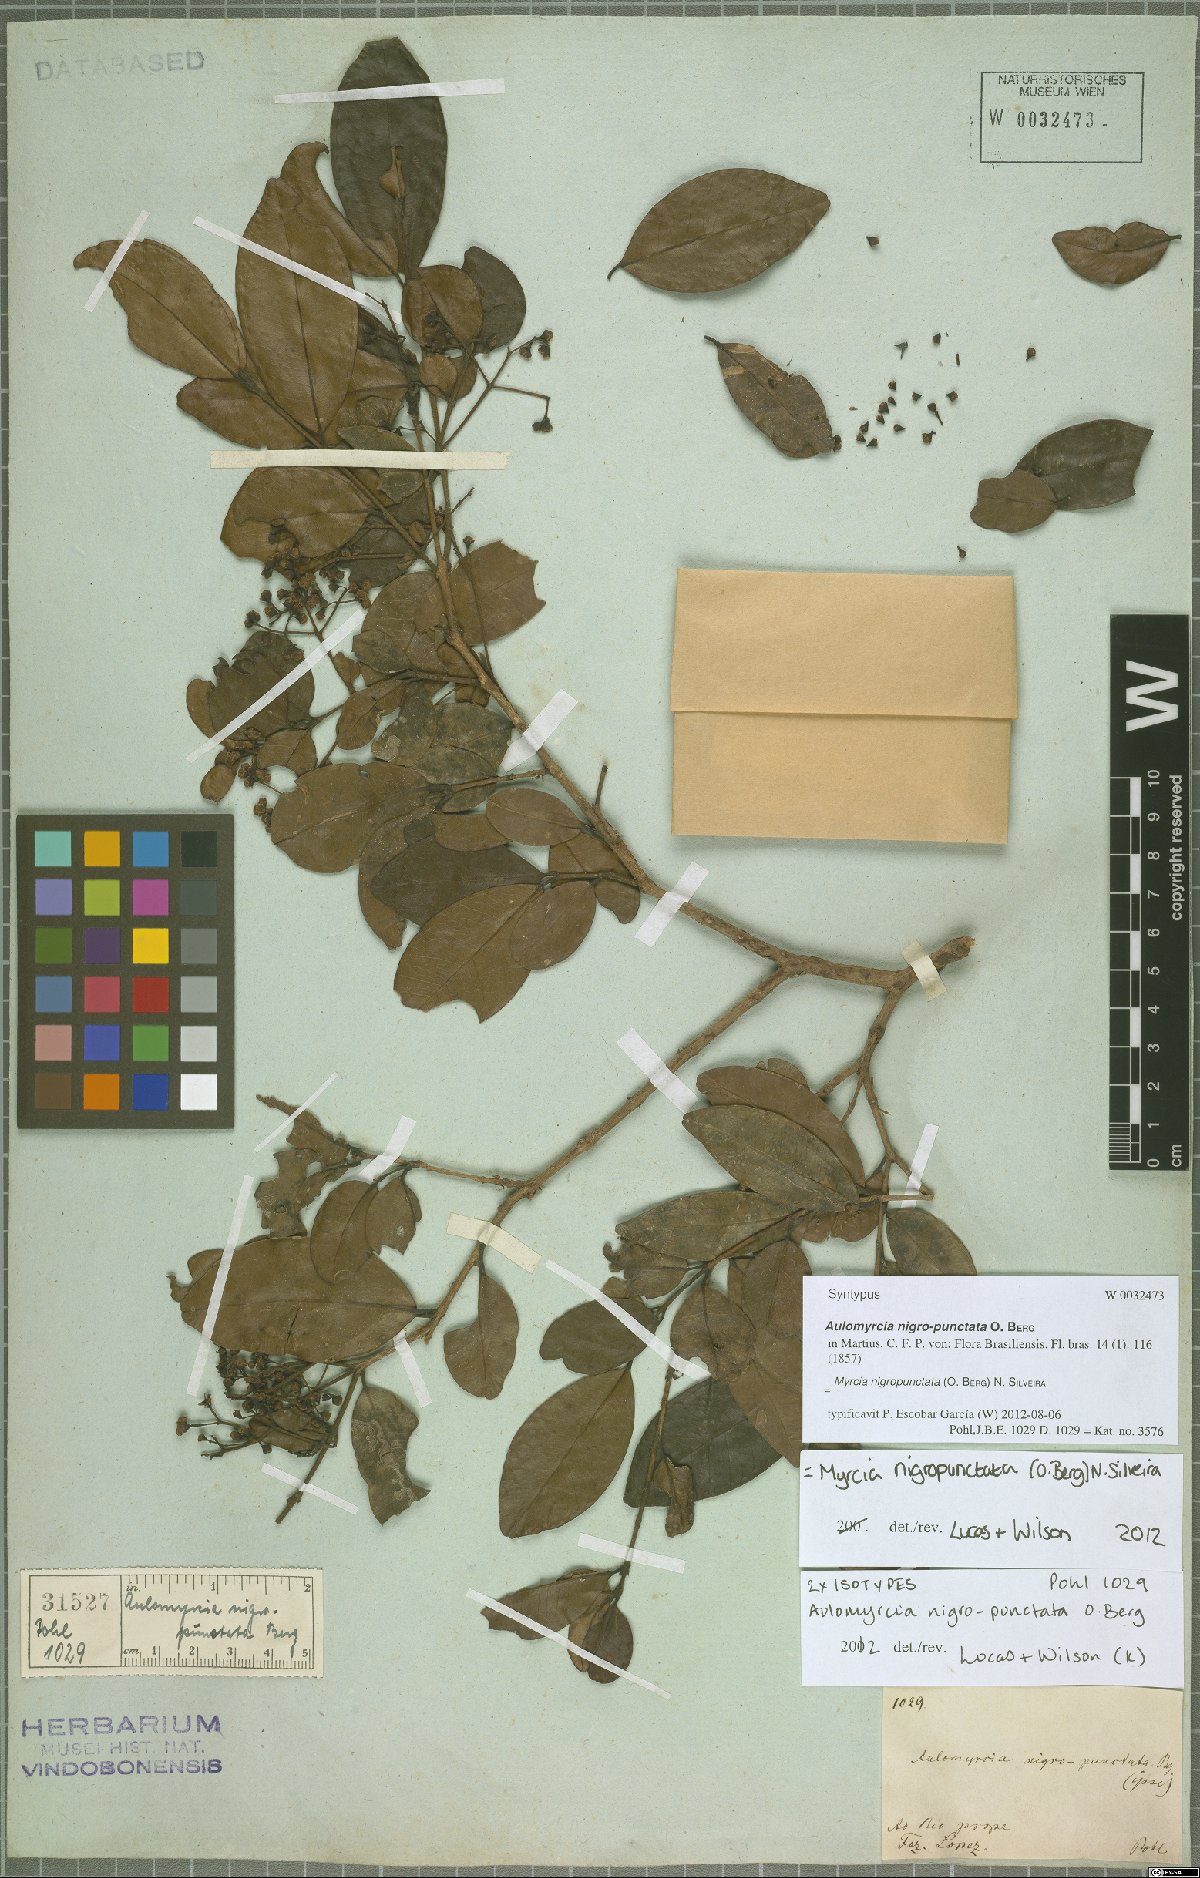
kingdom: Plantae
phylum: Tracheophyta
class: Magnoliopsida
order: Myrtales
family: Myrtaceae
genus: Myrcia
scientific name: Myrcia nigropunctata
